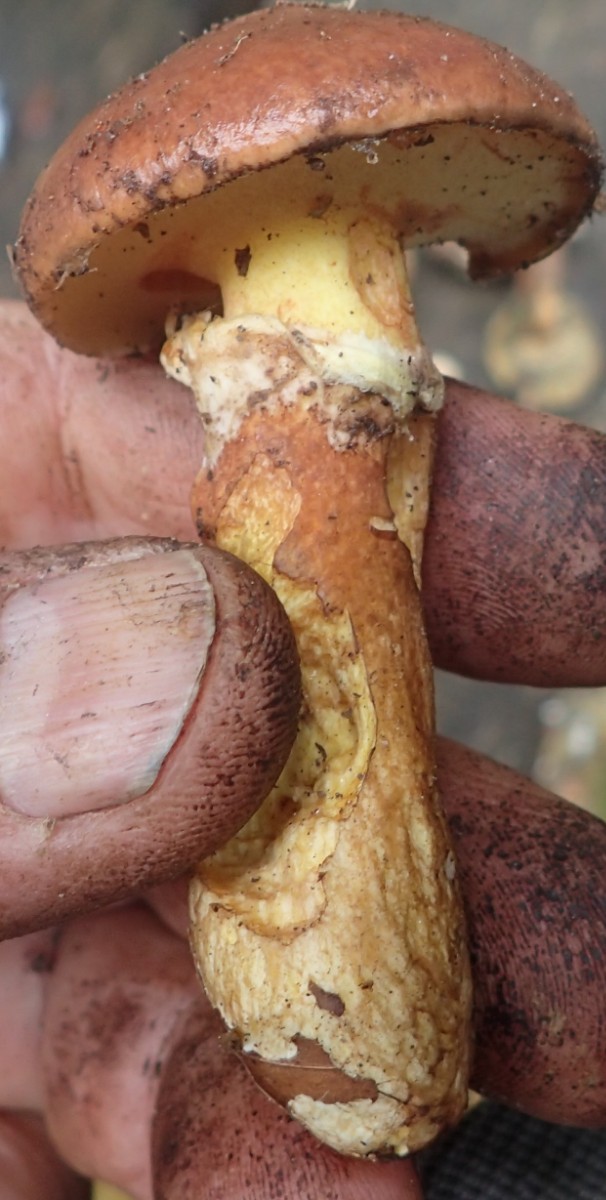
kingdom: Fungi
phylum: Basidiomycota
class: Agaricomycetes
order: Boletales
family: Suillaceae
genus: Suillus
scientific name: Suillus luteus
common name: brungul slimrørhat
